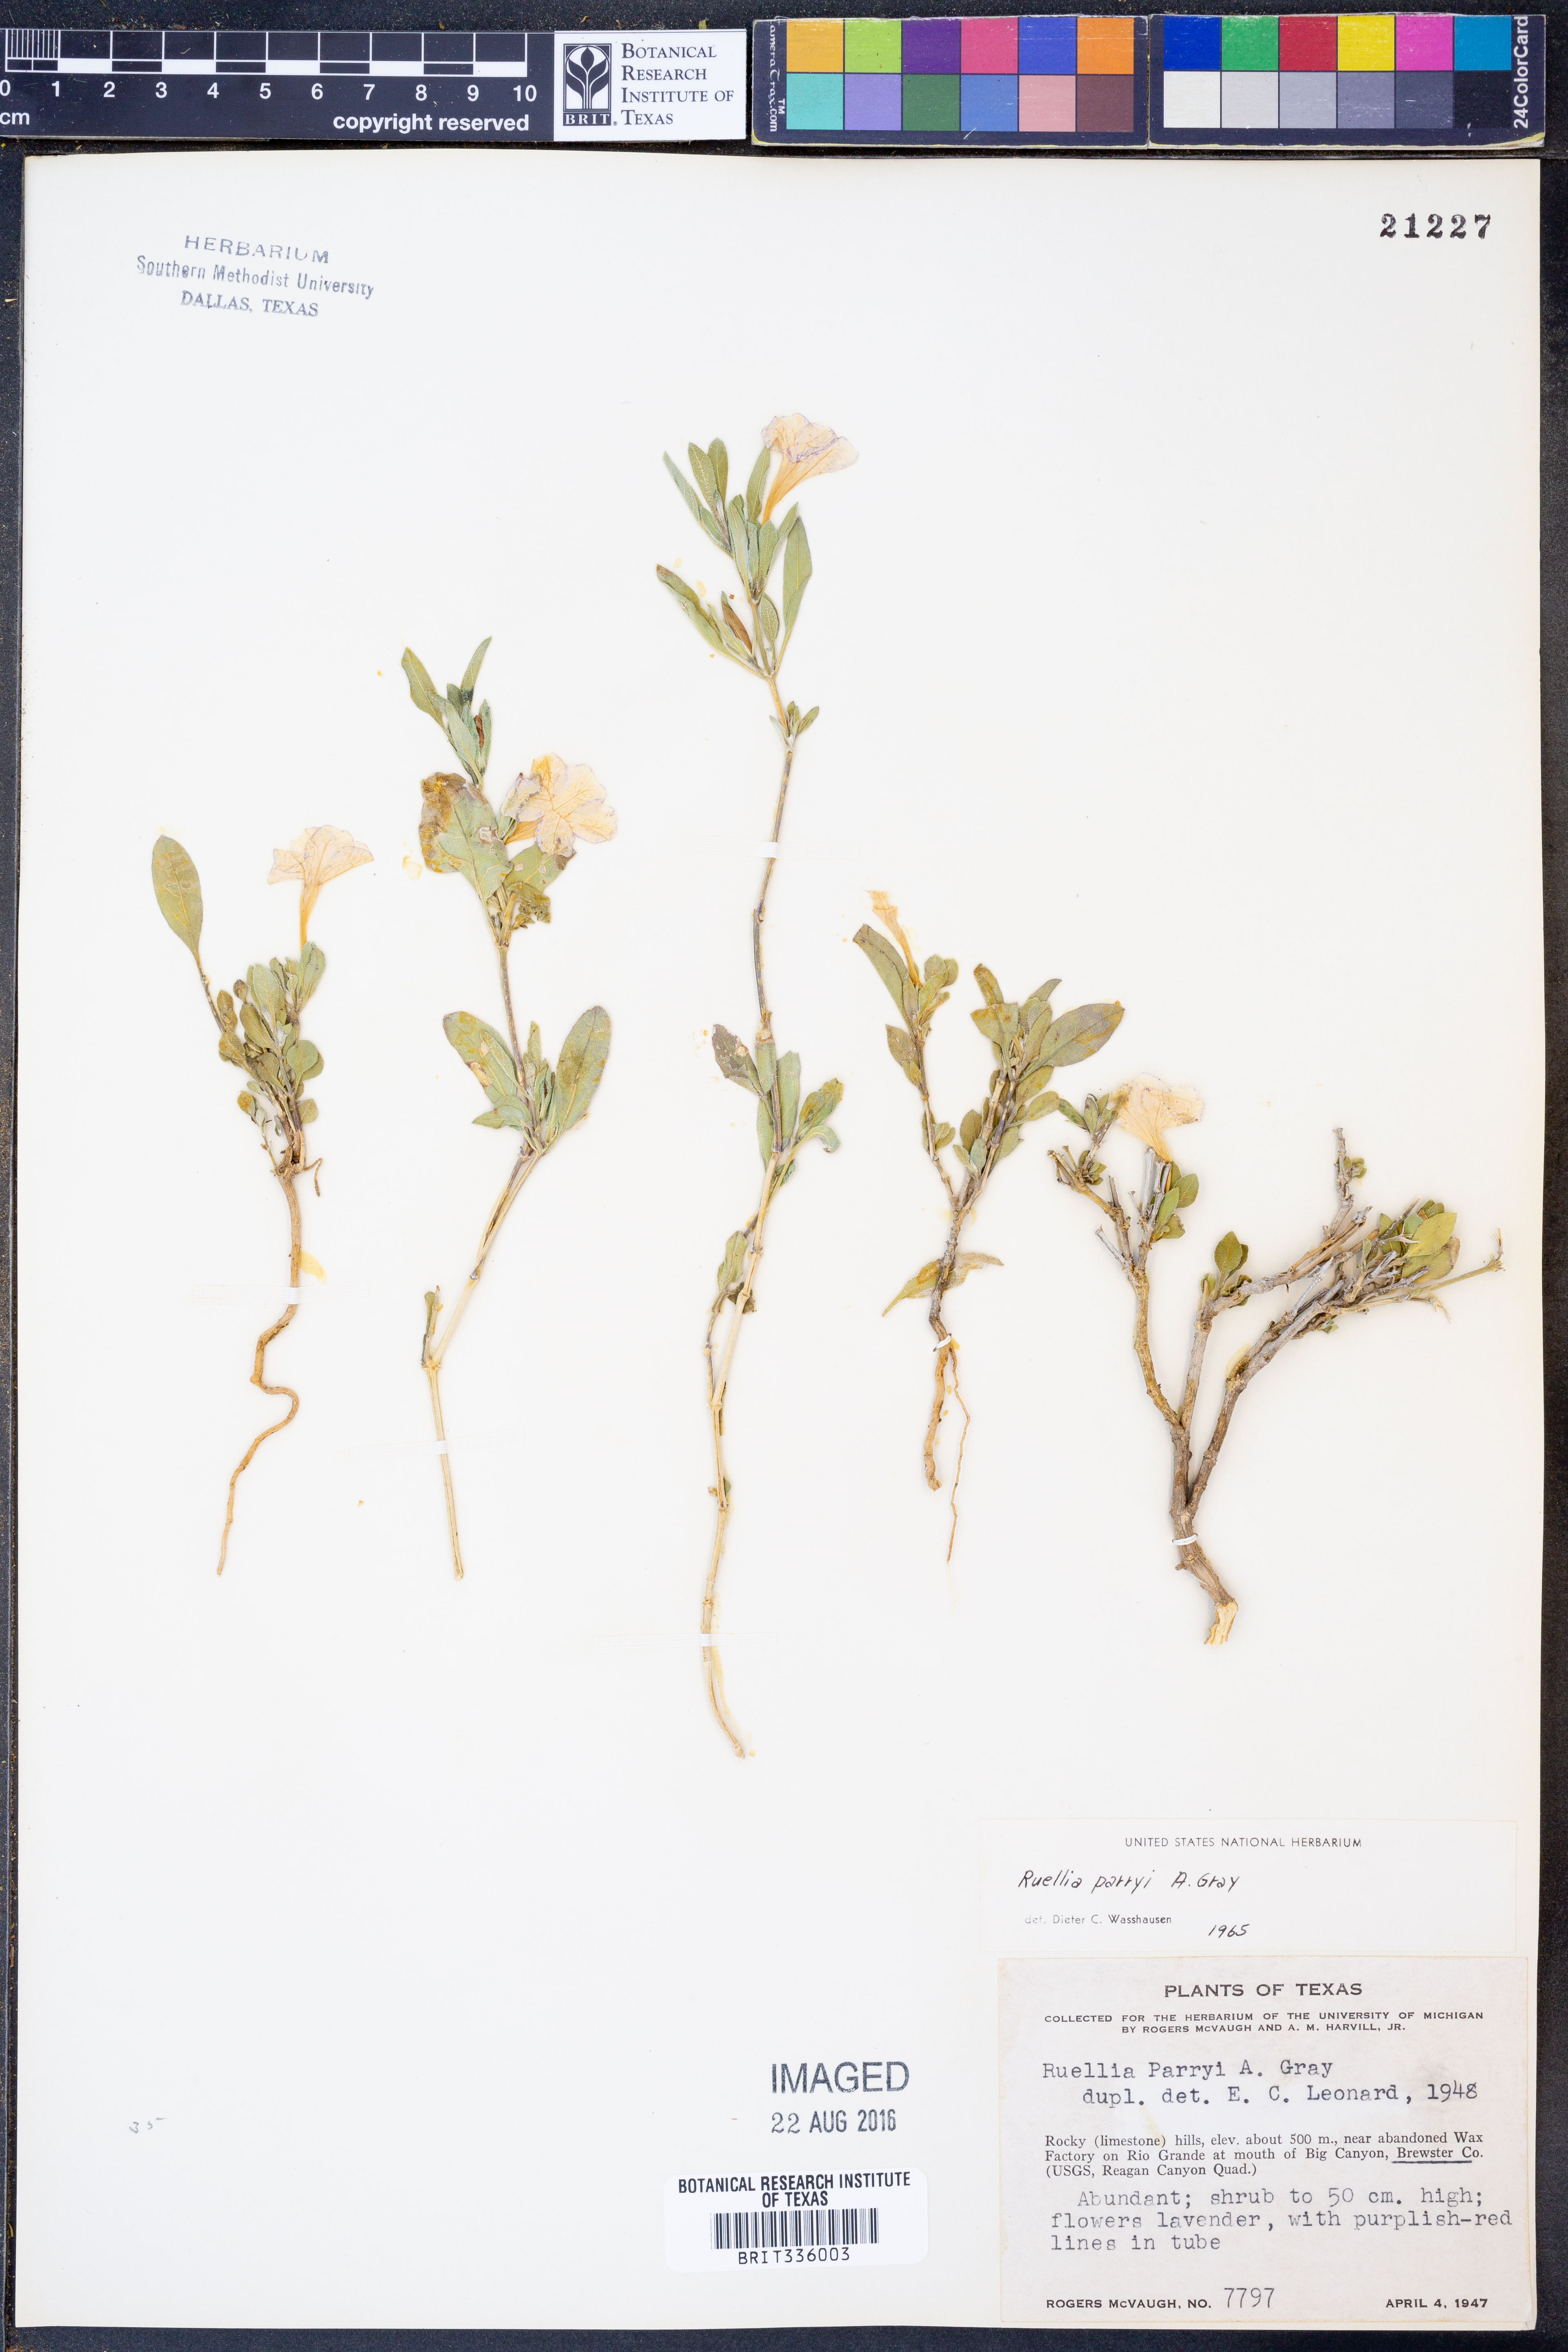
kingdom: Plantae
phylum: Tracheophyta
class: Magnoliopsida
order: Lamiales
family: Acanthaceae
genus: Ruellia
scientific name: Ruellia parryi
